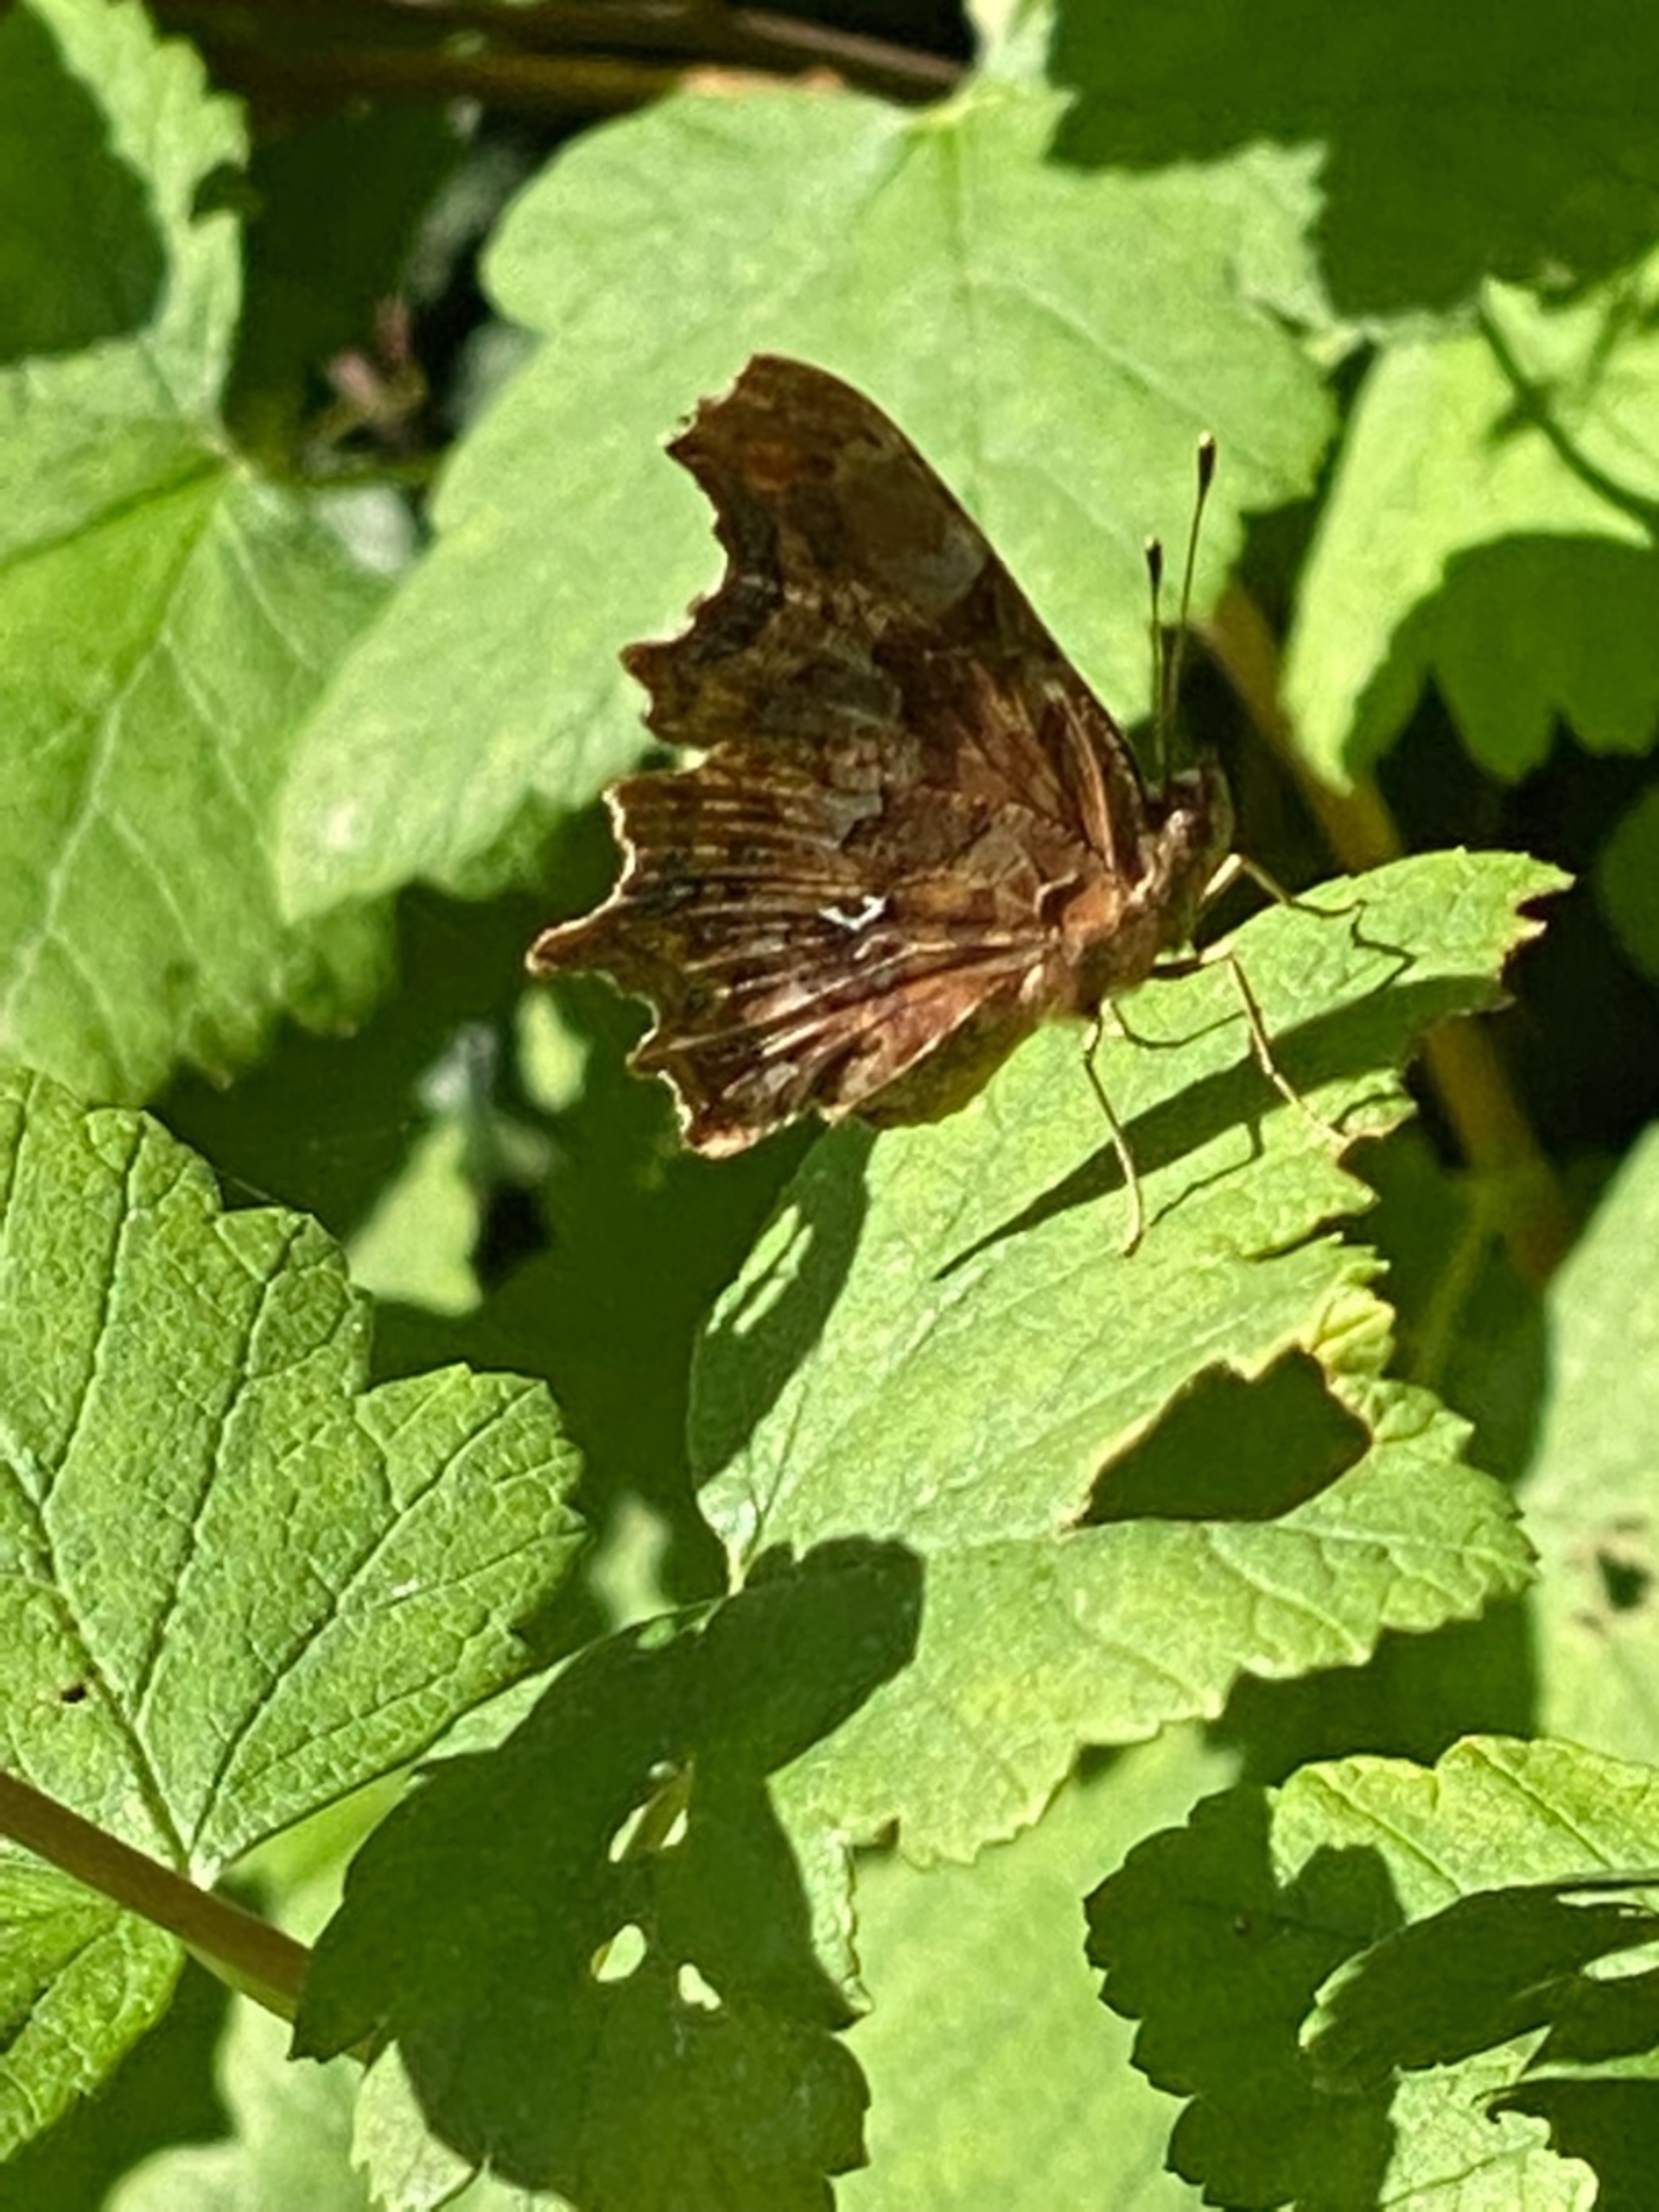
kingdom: Animalia
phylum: Arthropoda
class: Insecta
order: Lepidoptera
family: Nymphalidae
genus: Polygonia
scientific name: Polygonia c-album
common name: Det hvide C
